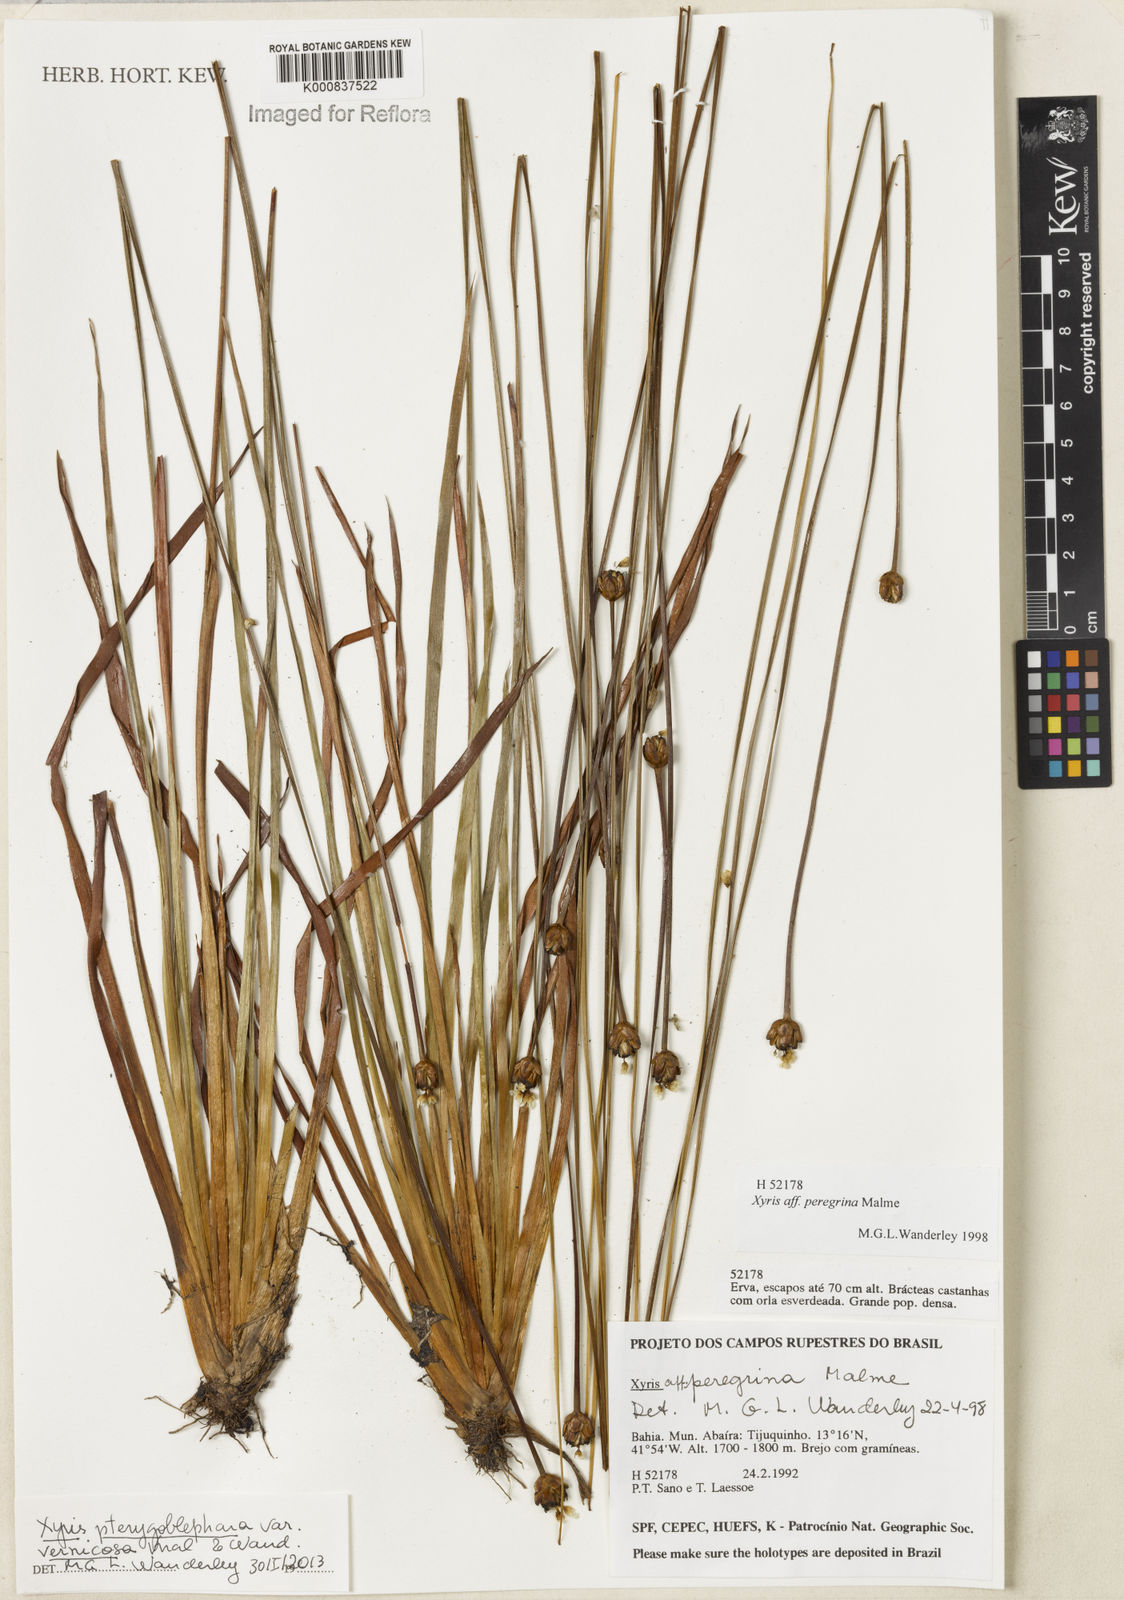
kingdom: Plantae
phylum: Tracheophyta
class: Liliopsida
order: Poales
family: Xyridaceae
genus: Xyris
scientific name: Xyris pterygoblephara
